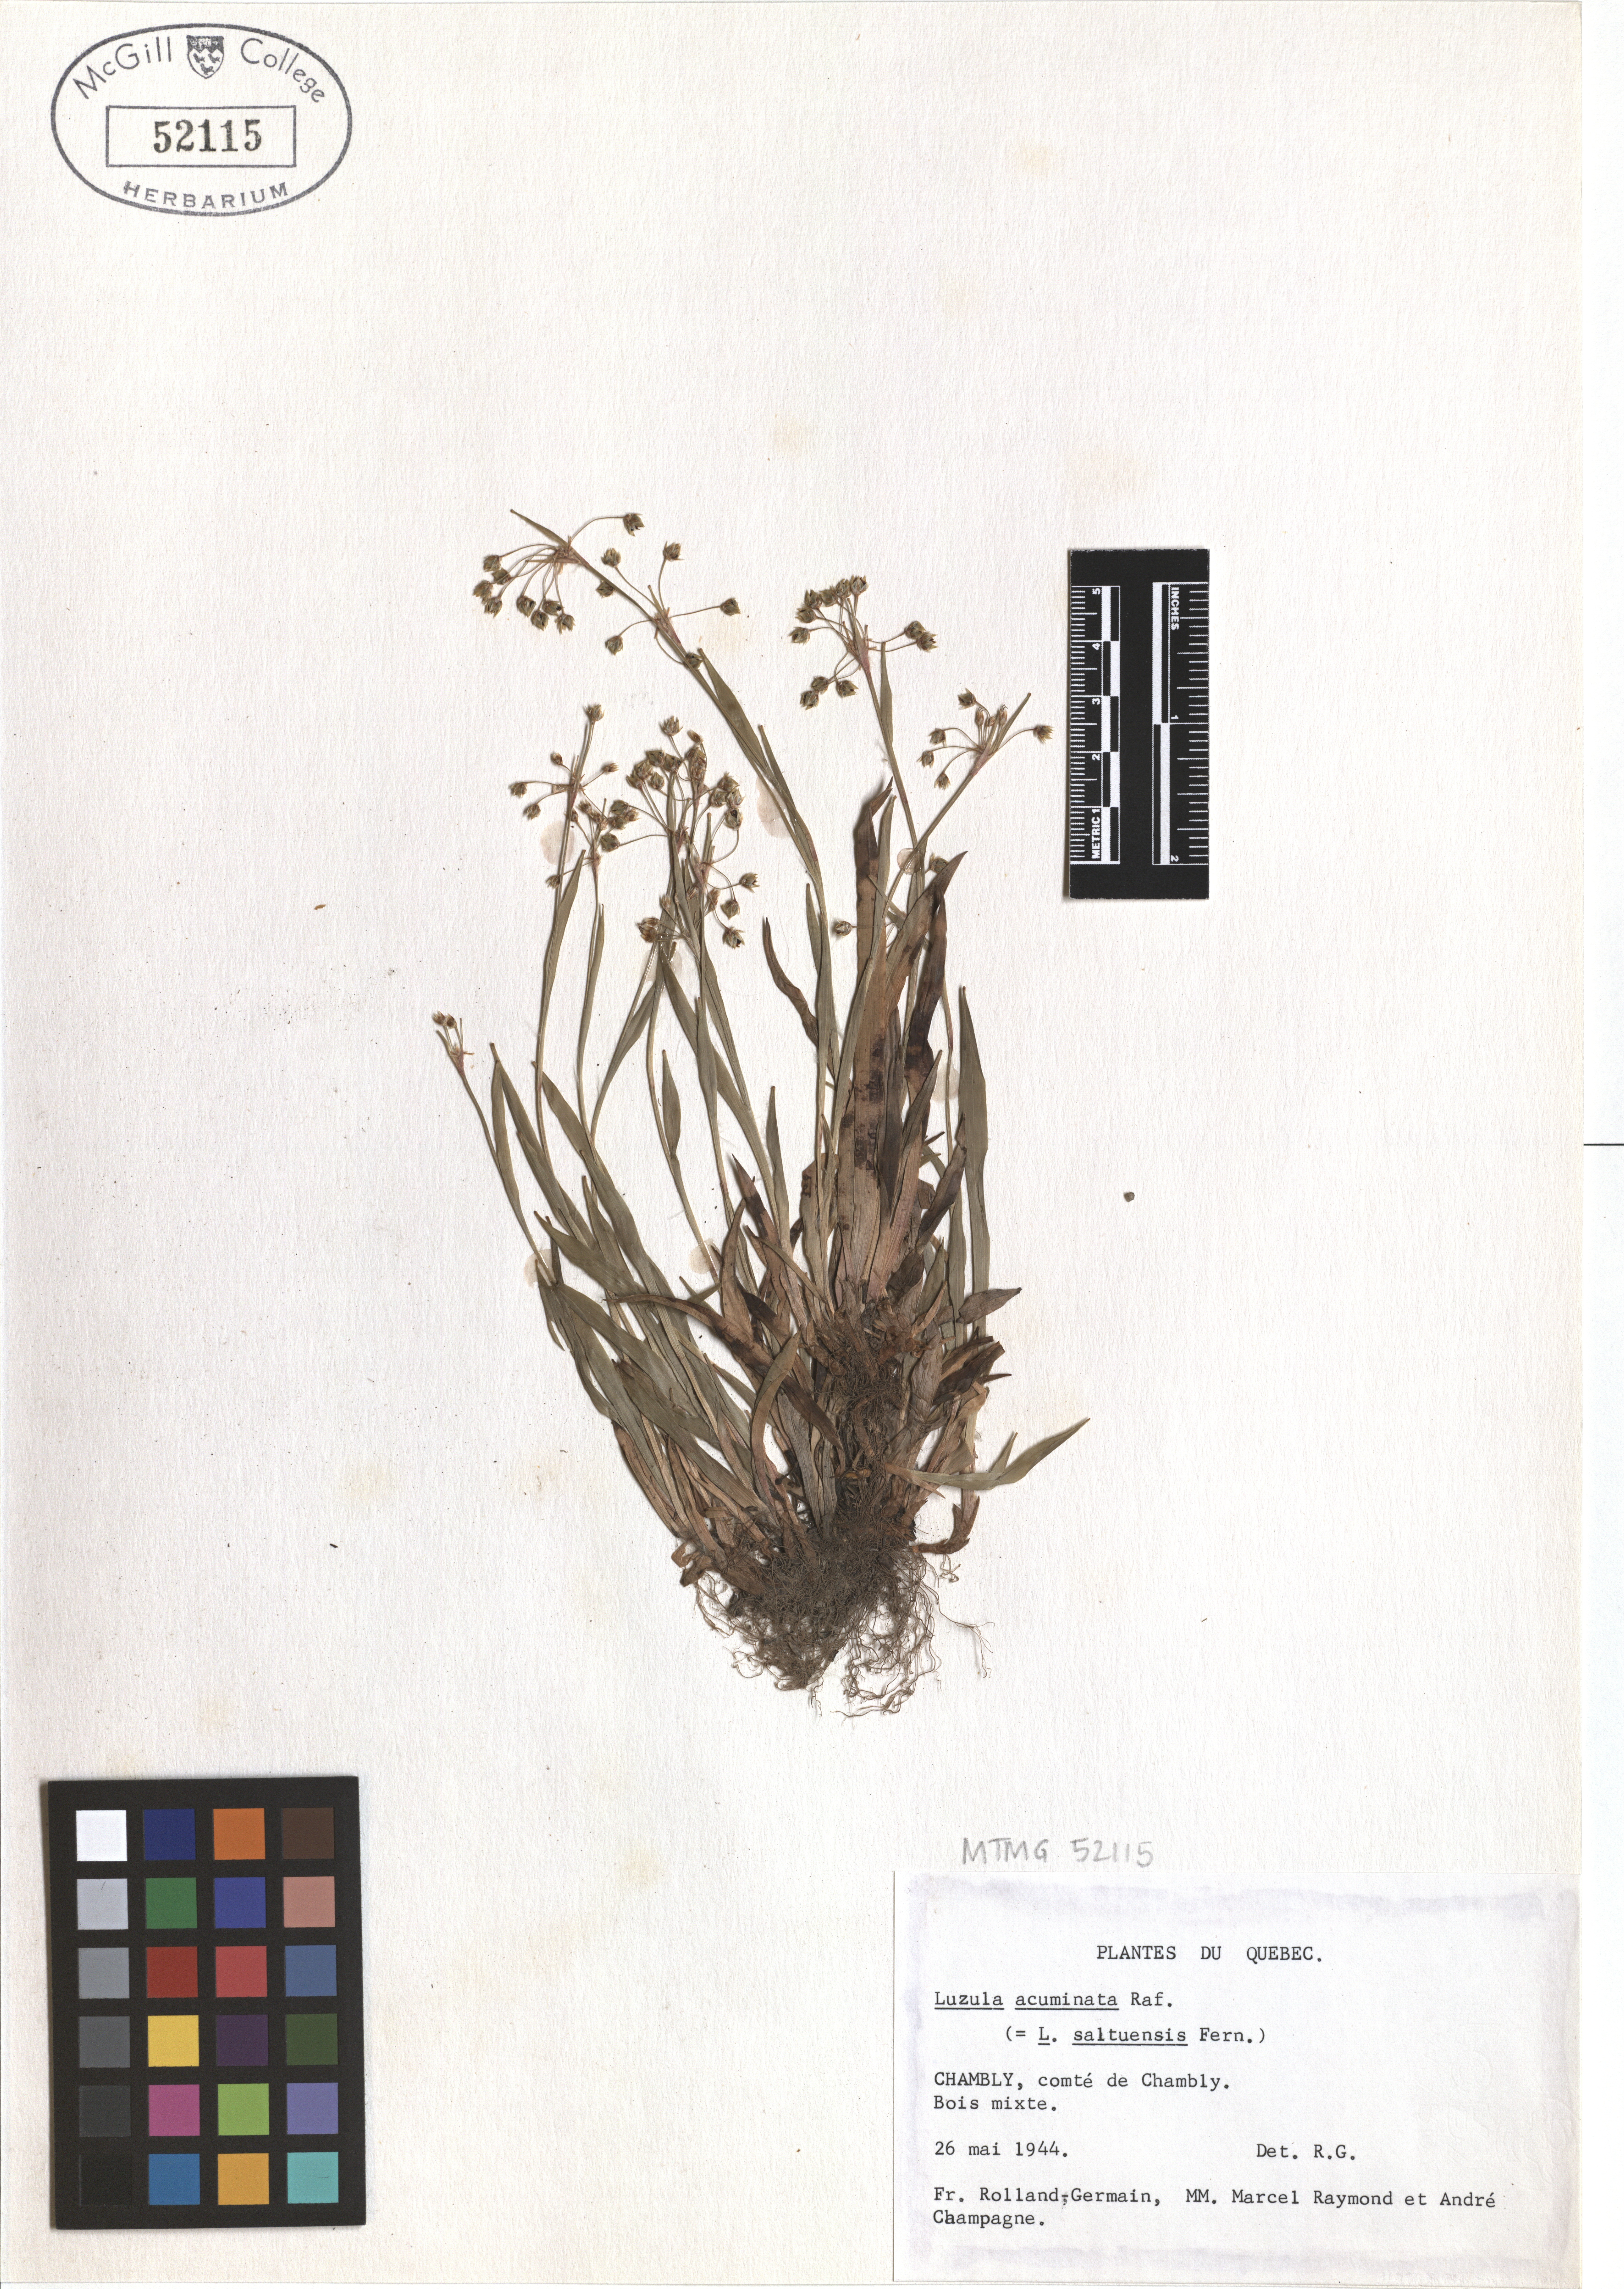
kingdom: Plantae
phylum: Tracheophyta
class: Liliopsida
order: Poales
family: Juncaceae
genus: Luzula
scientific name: Luzula acuminata
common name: Hairy woodrush
